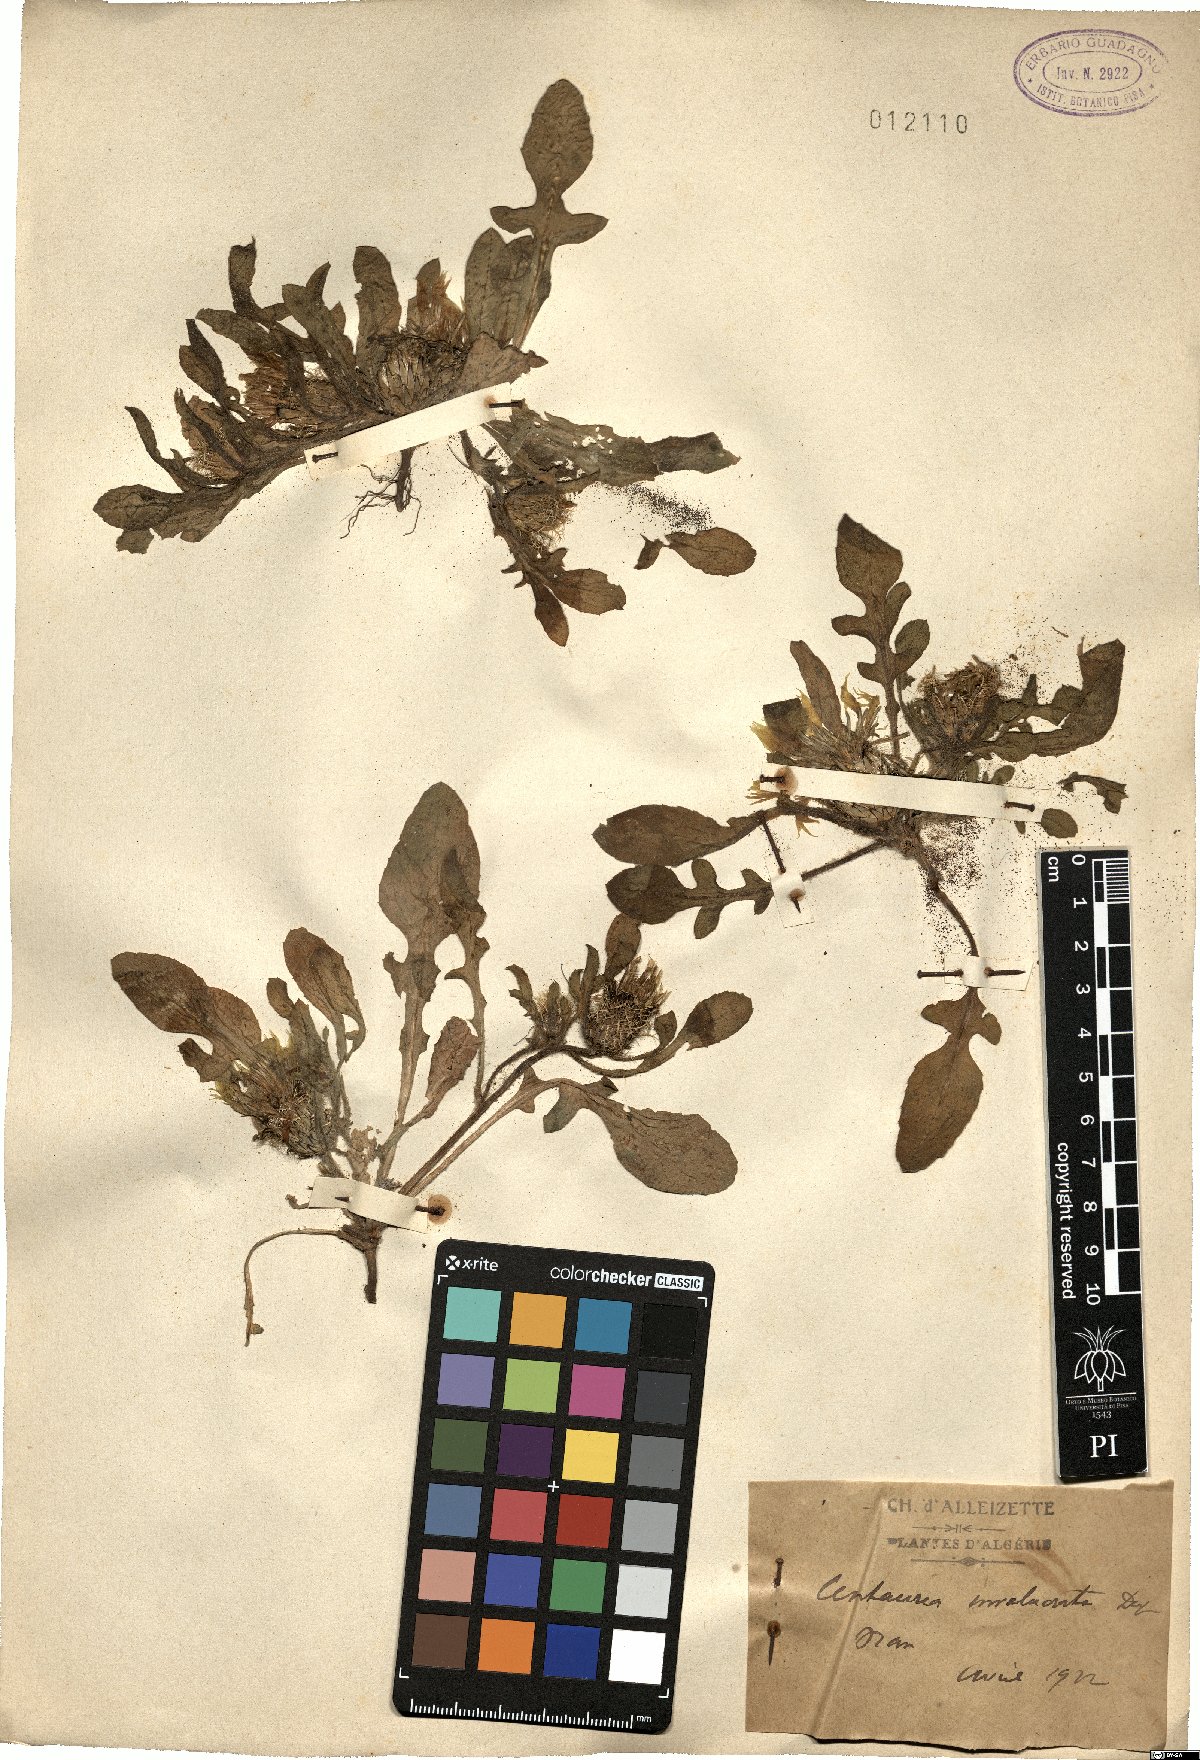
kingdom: Plantae
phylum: Tracheophyta
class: Magnoliopsida
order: Asterales
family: Asteraceae
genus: Centaurea
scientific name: Centaurea involucrata
